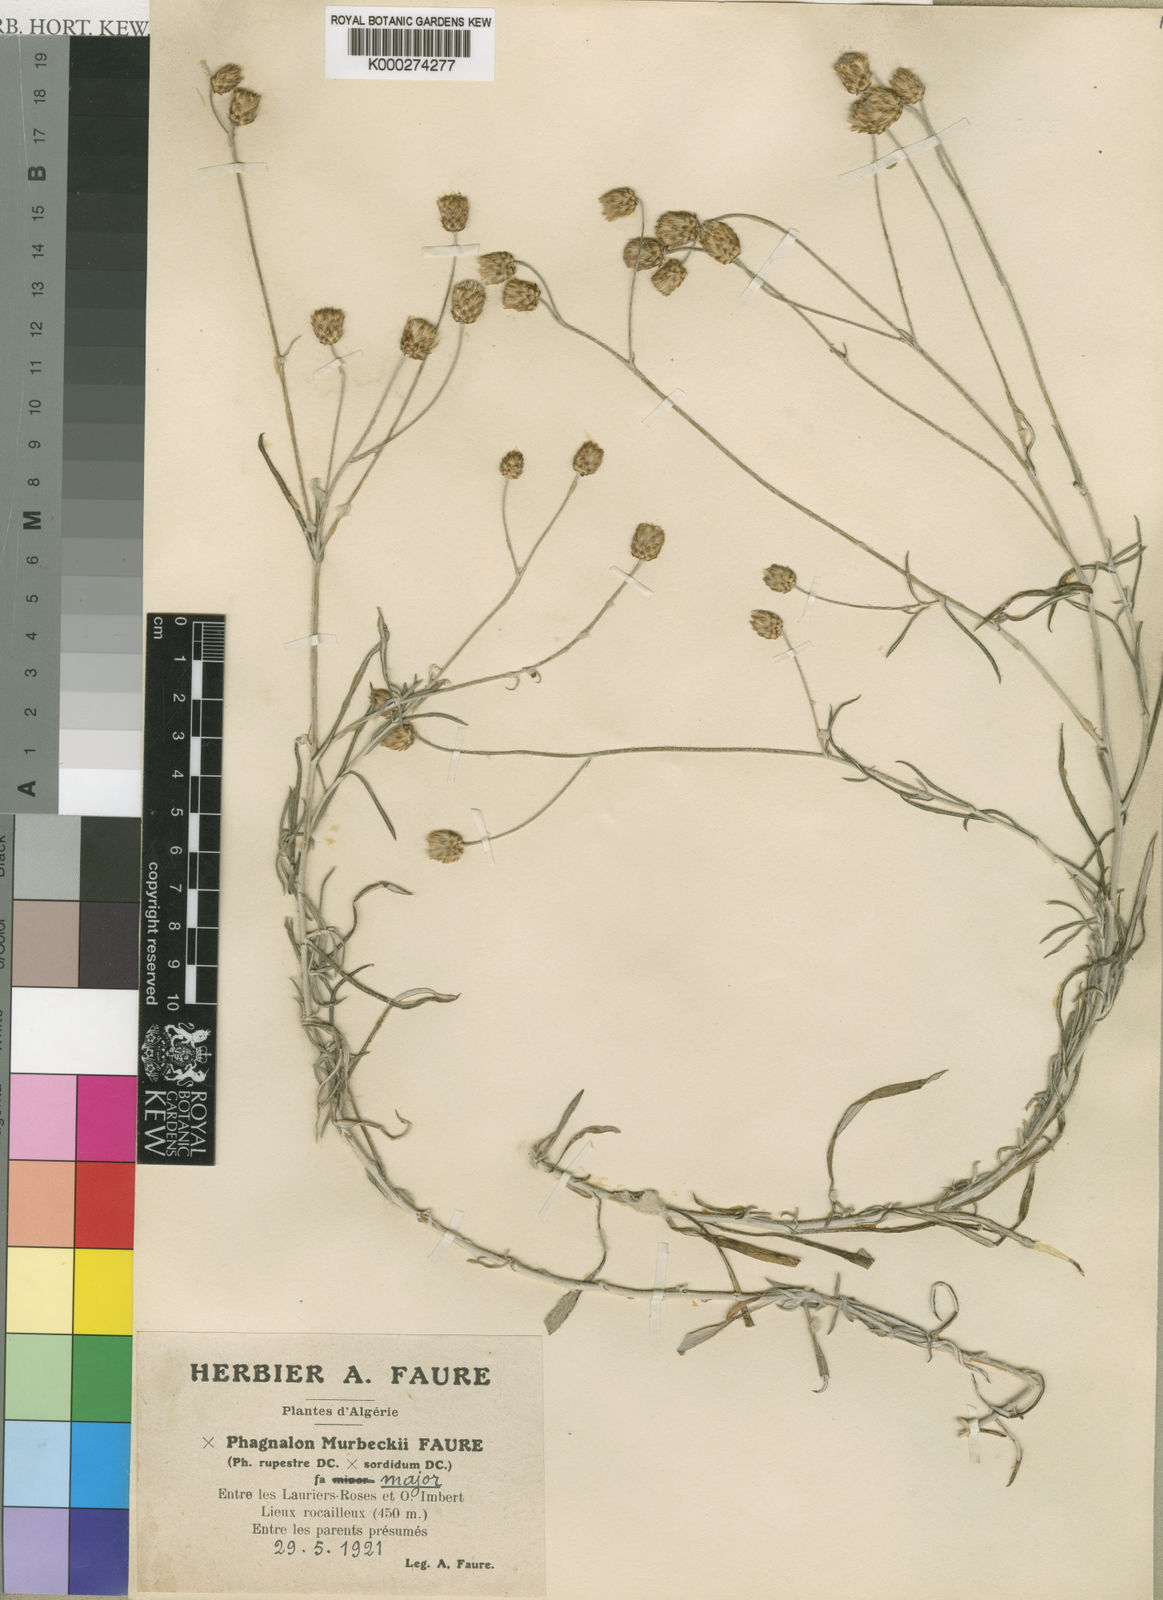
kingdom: Plantae
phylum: Tracheophyta
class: Magnoliopsida
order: Asterales
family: Asteraceae
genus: Phagnalon
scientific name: Phagnalon murbeckii
